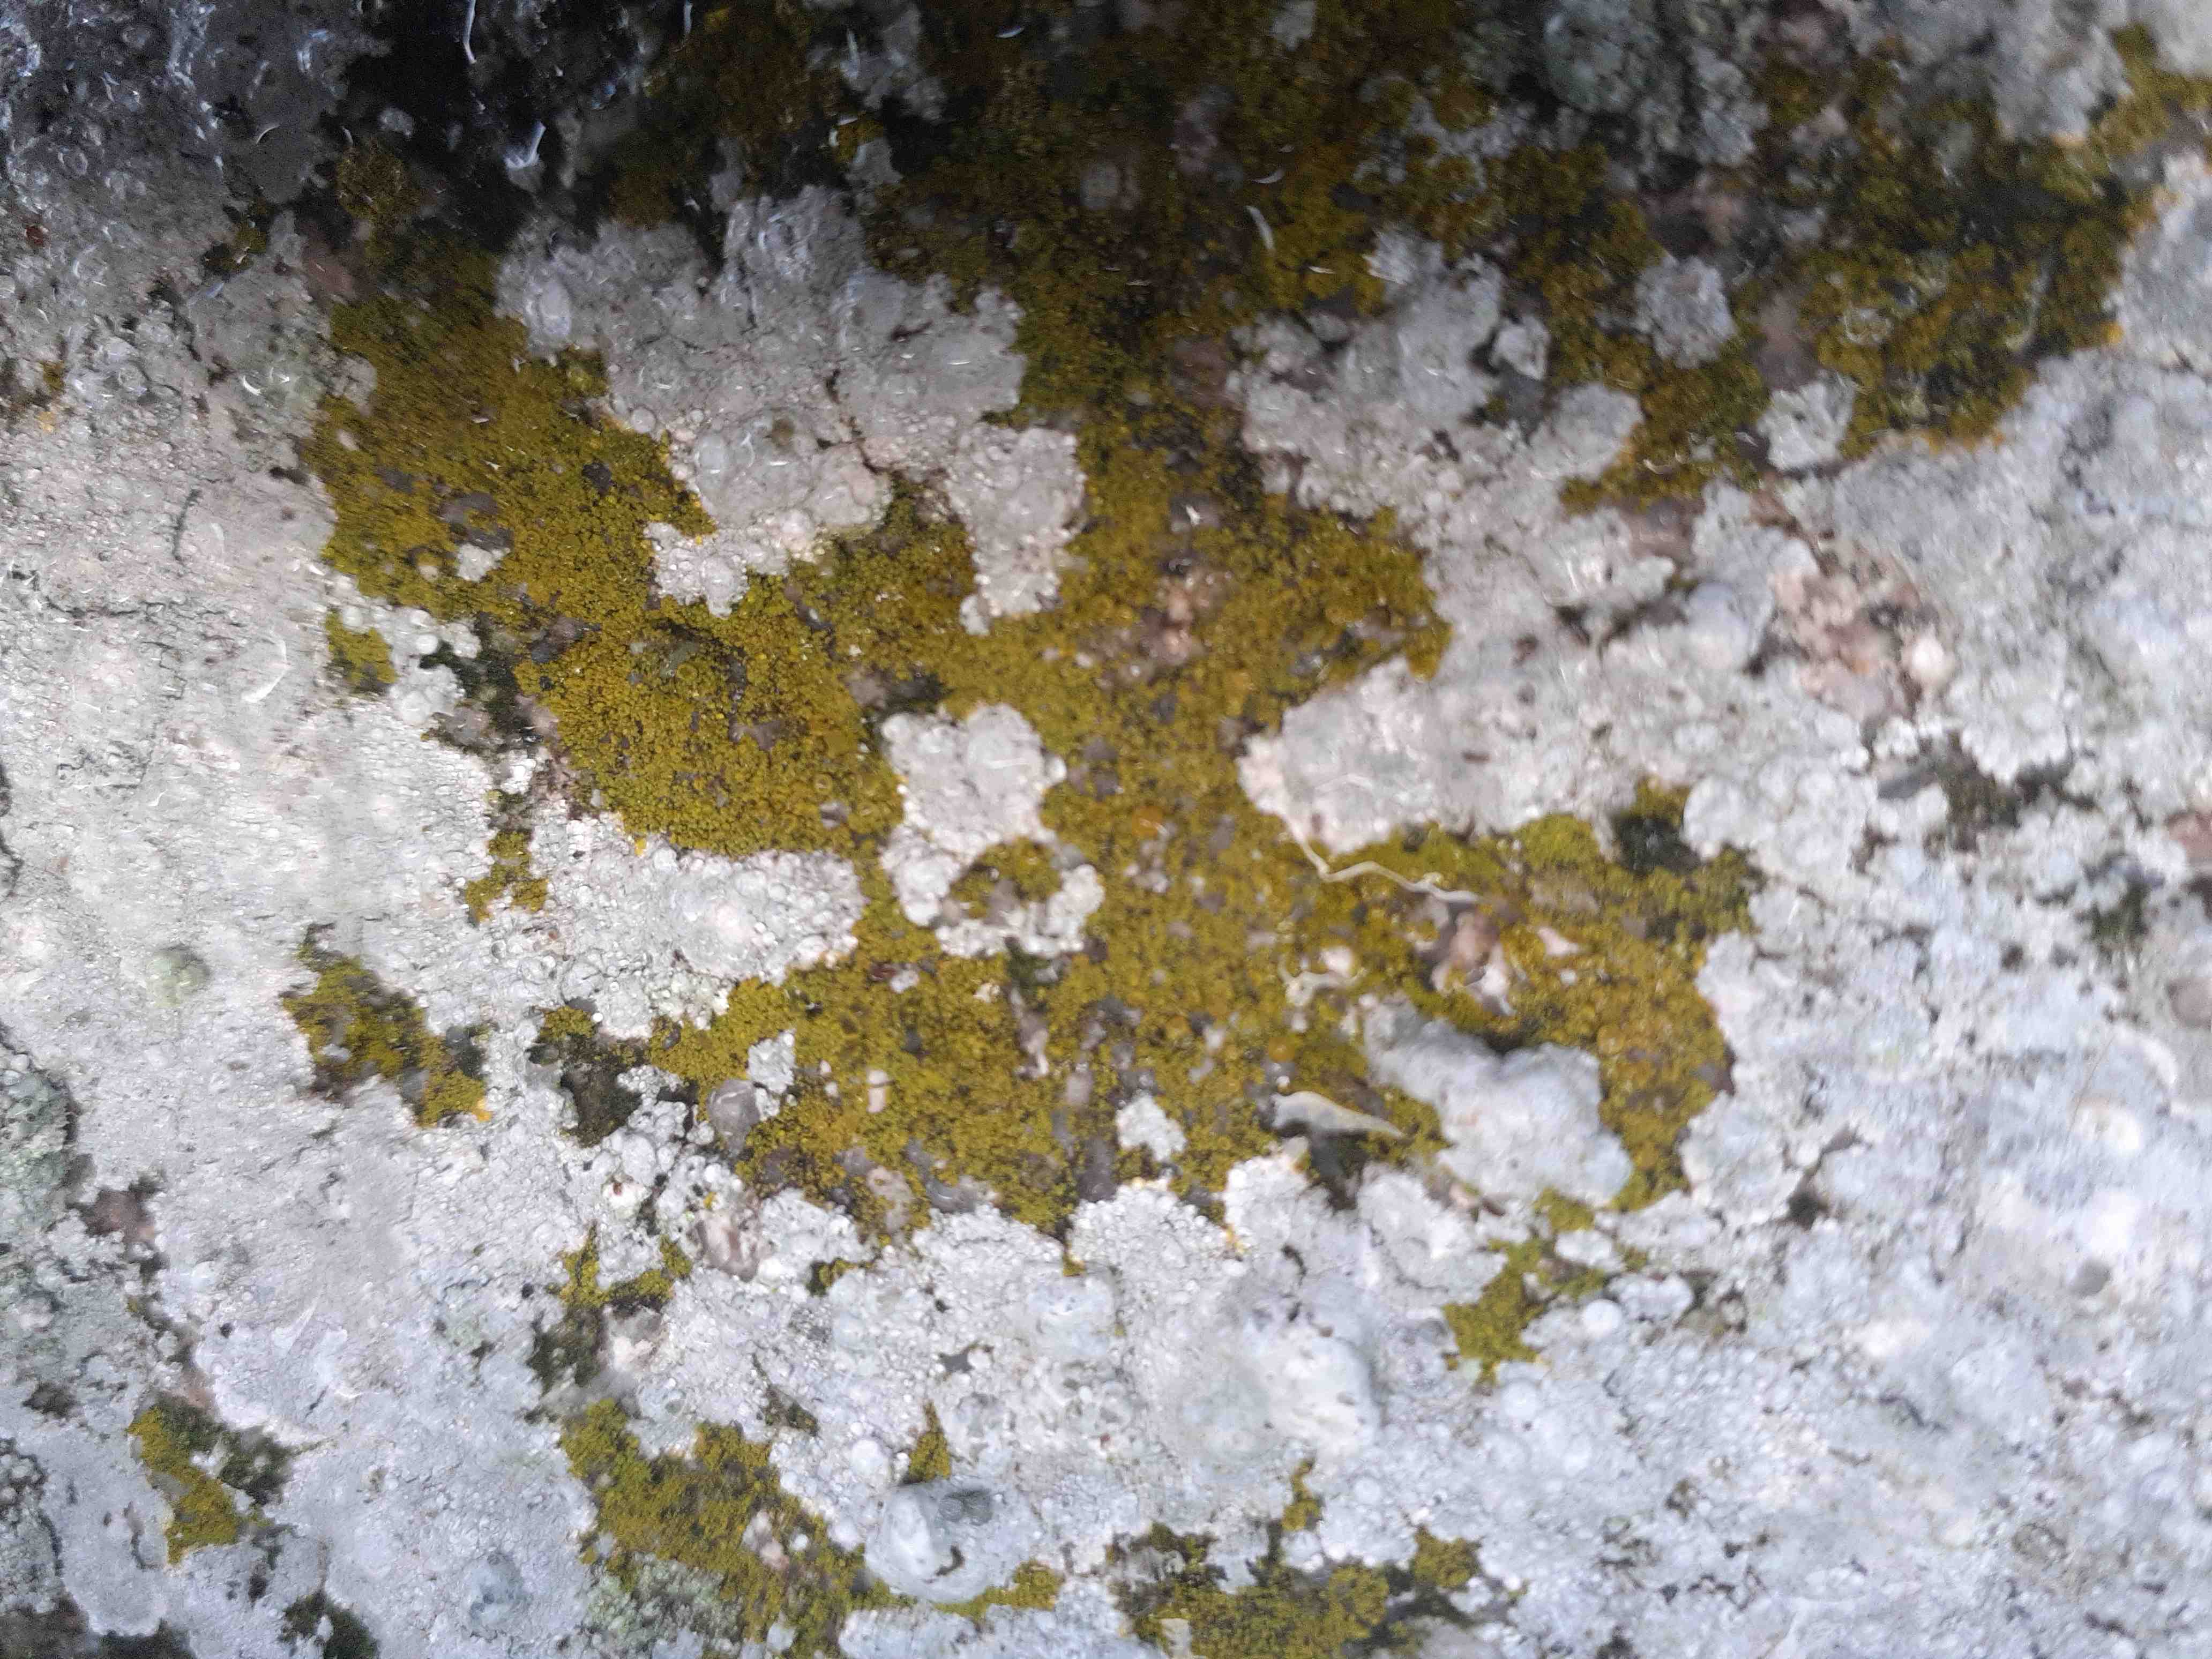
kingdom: Fungi
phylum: Ascomycota
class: Candelariomycetes
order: Candelariales
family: Candelariaceae
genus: Candelariella
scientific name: Candelariella vitellina
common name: almindelig æggeblommelav
